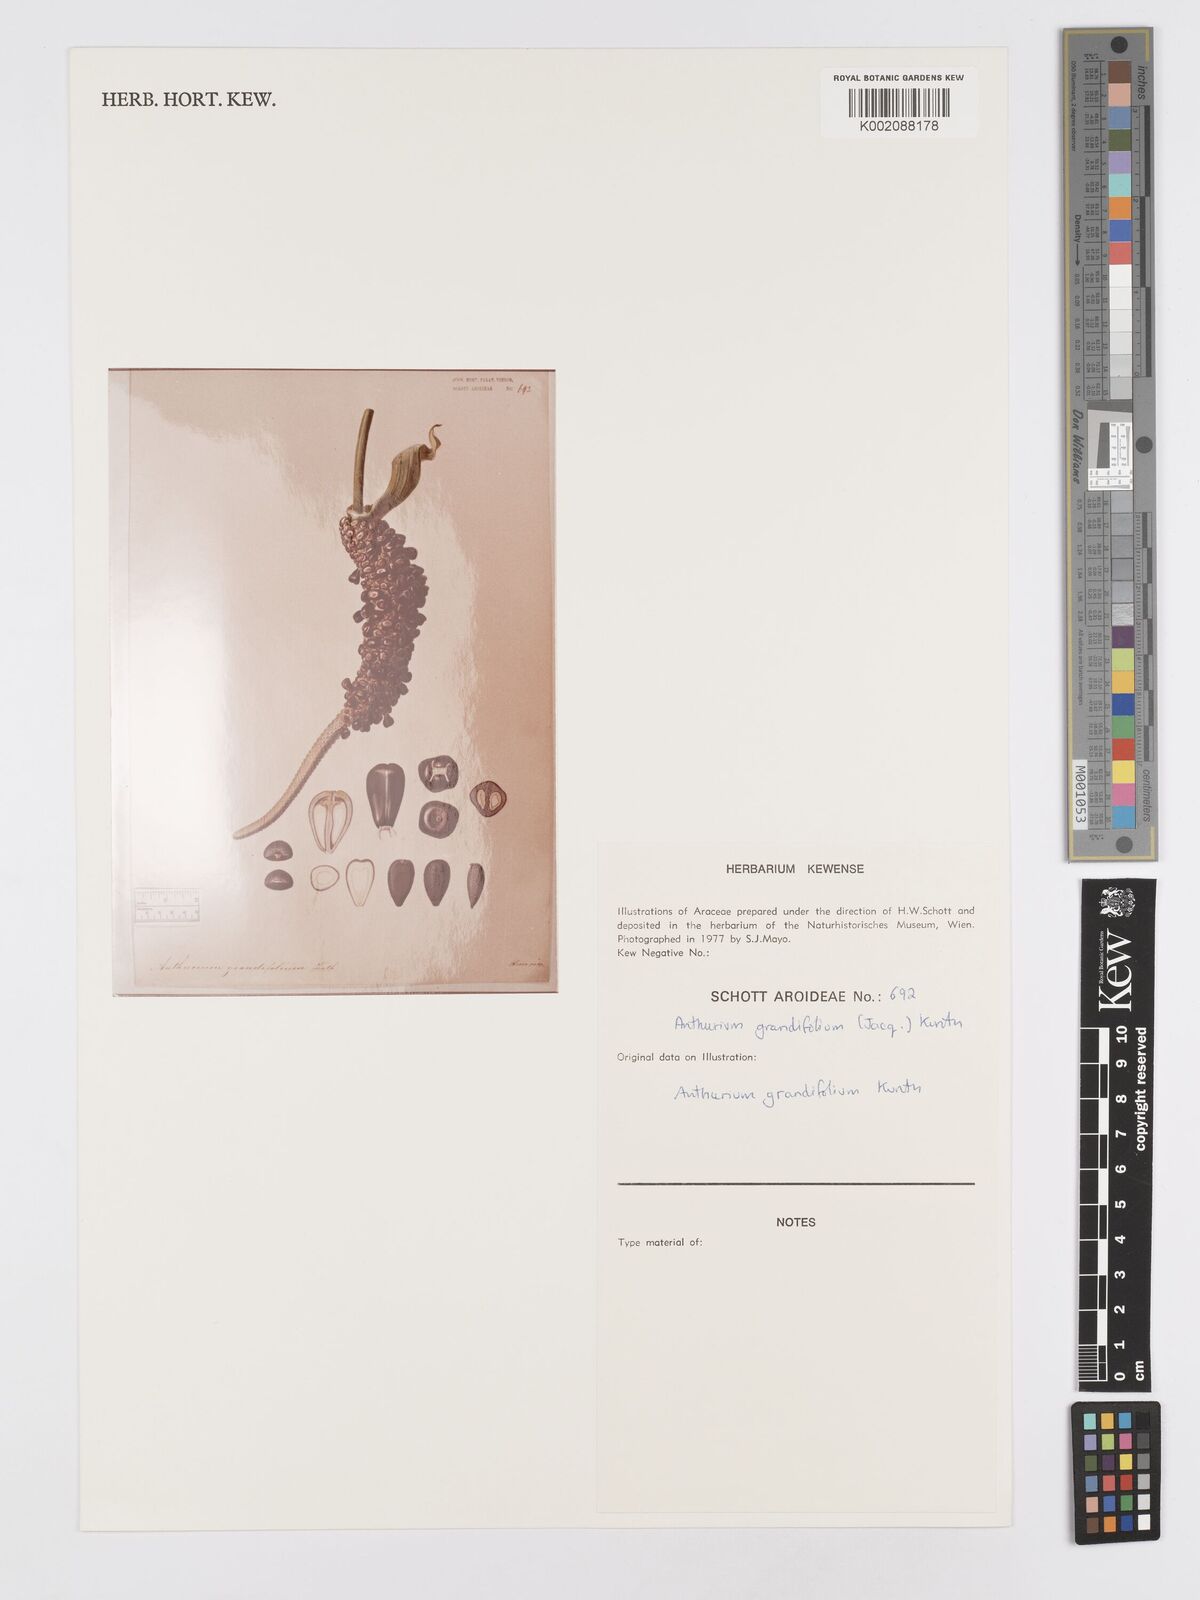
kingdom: Plantae
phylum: Tracheophyta
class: Liliopsida
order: Alismatales
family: Araceae
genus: Anthurium
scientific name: Anthurium grandifolium
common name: Monkey tail
